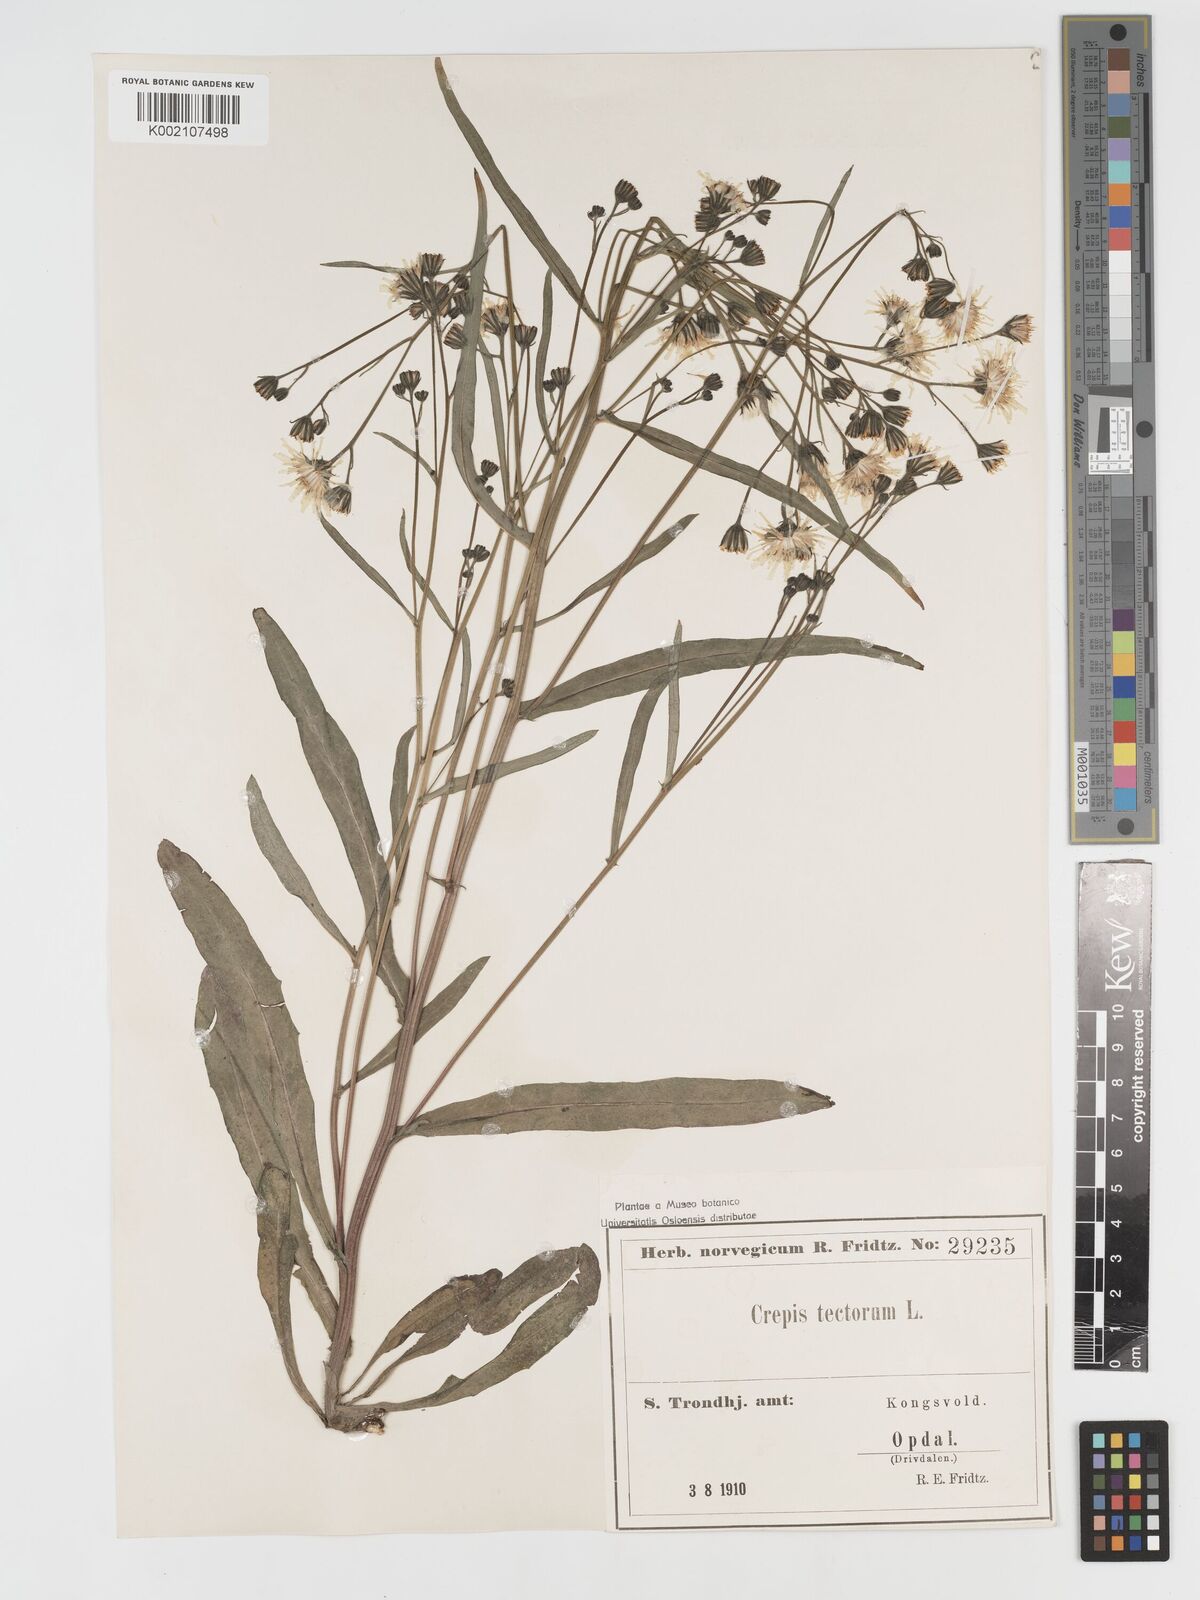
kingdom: Plantae
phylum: Tracheophyta
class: Magnoliopsida
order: Asterales
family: Asteraceae
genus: Crepis
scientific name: Crepis tectorum
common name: Narrow-leaved hawk's-beard
